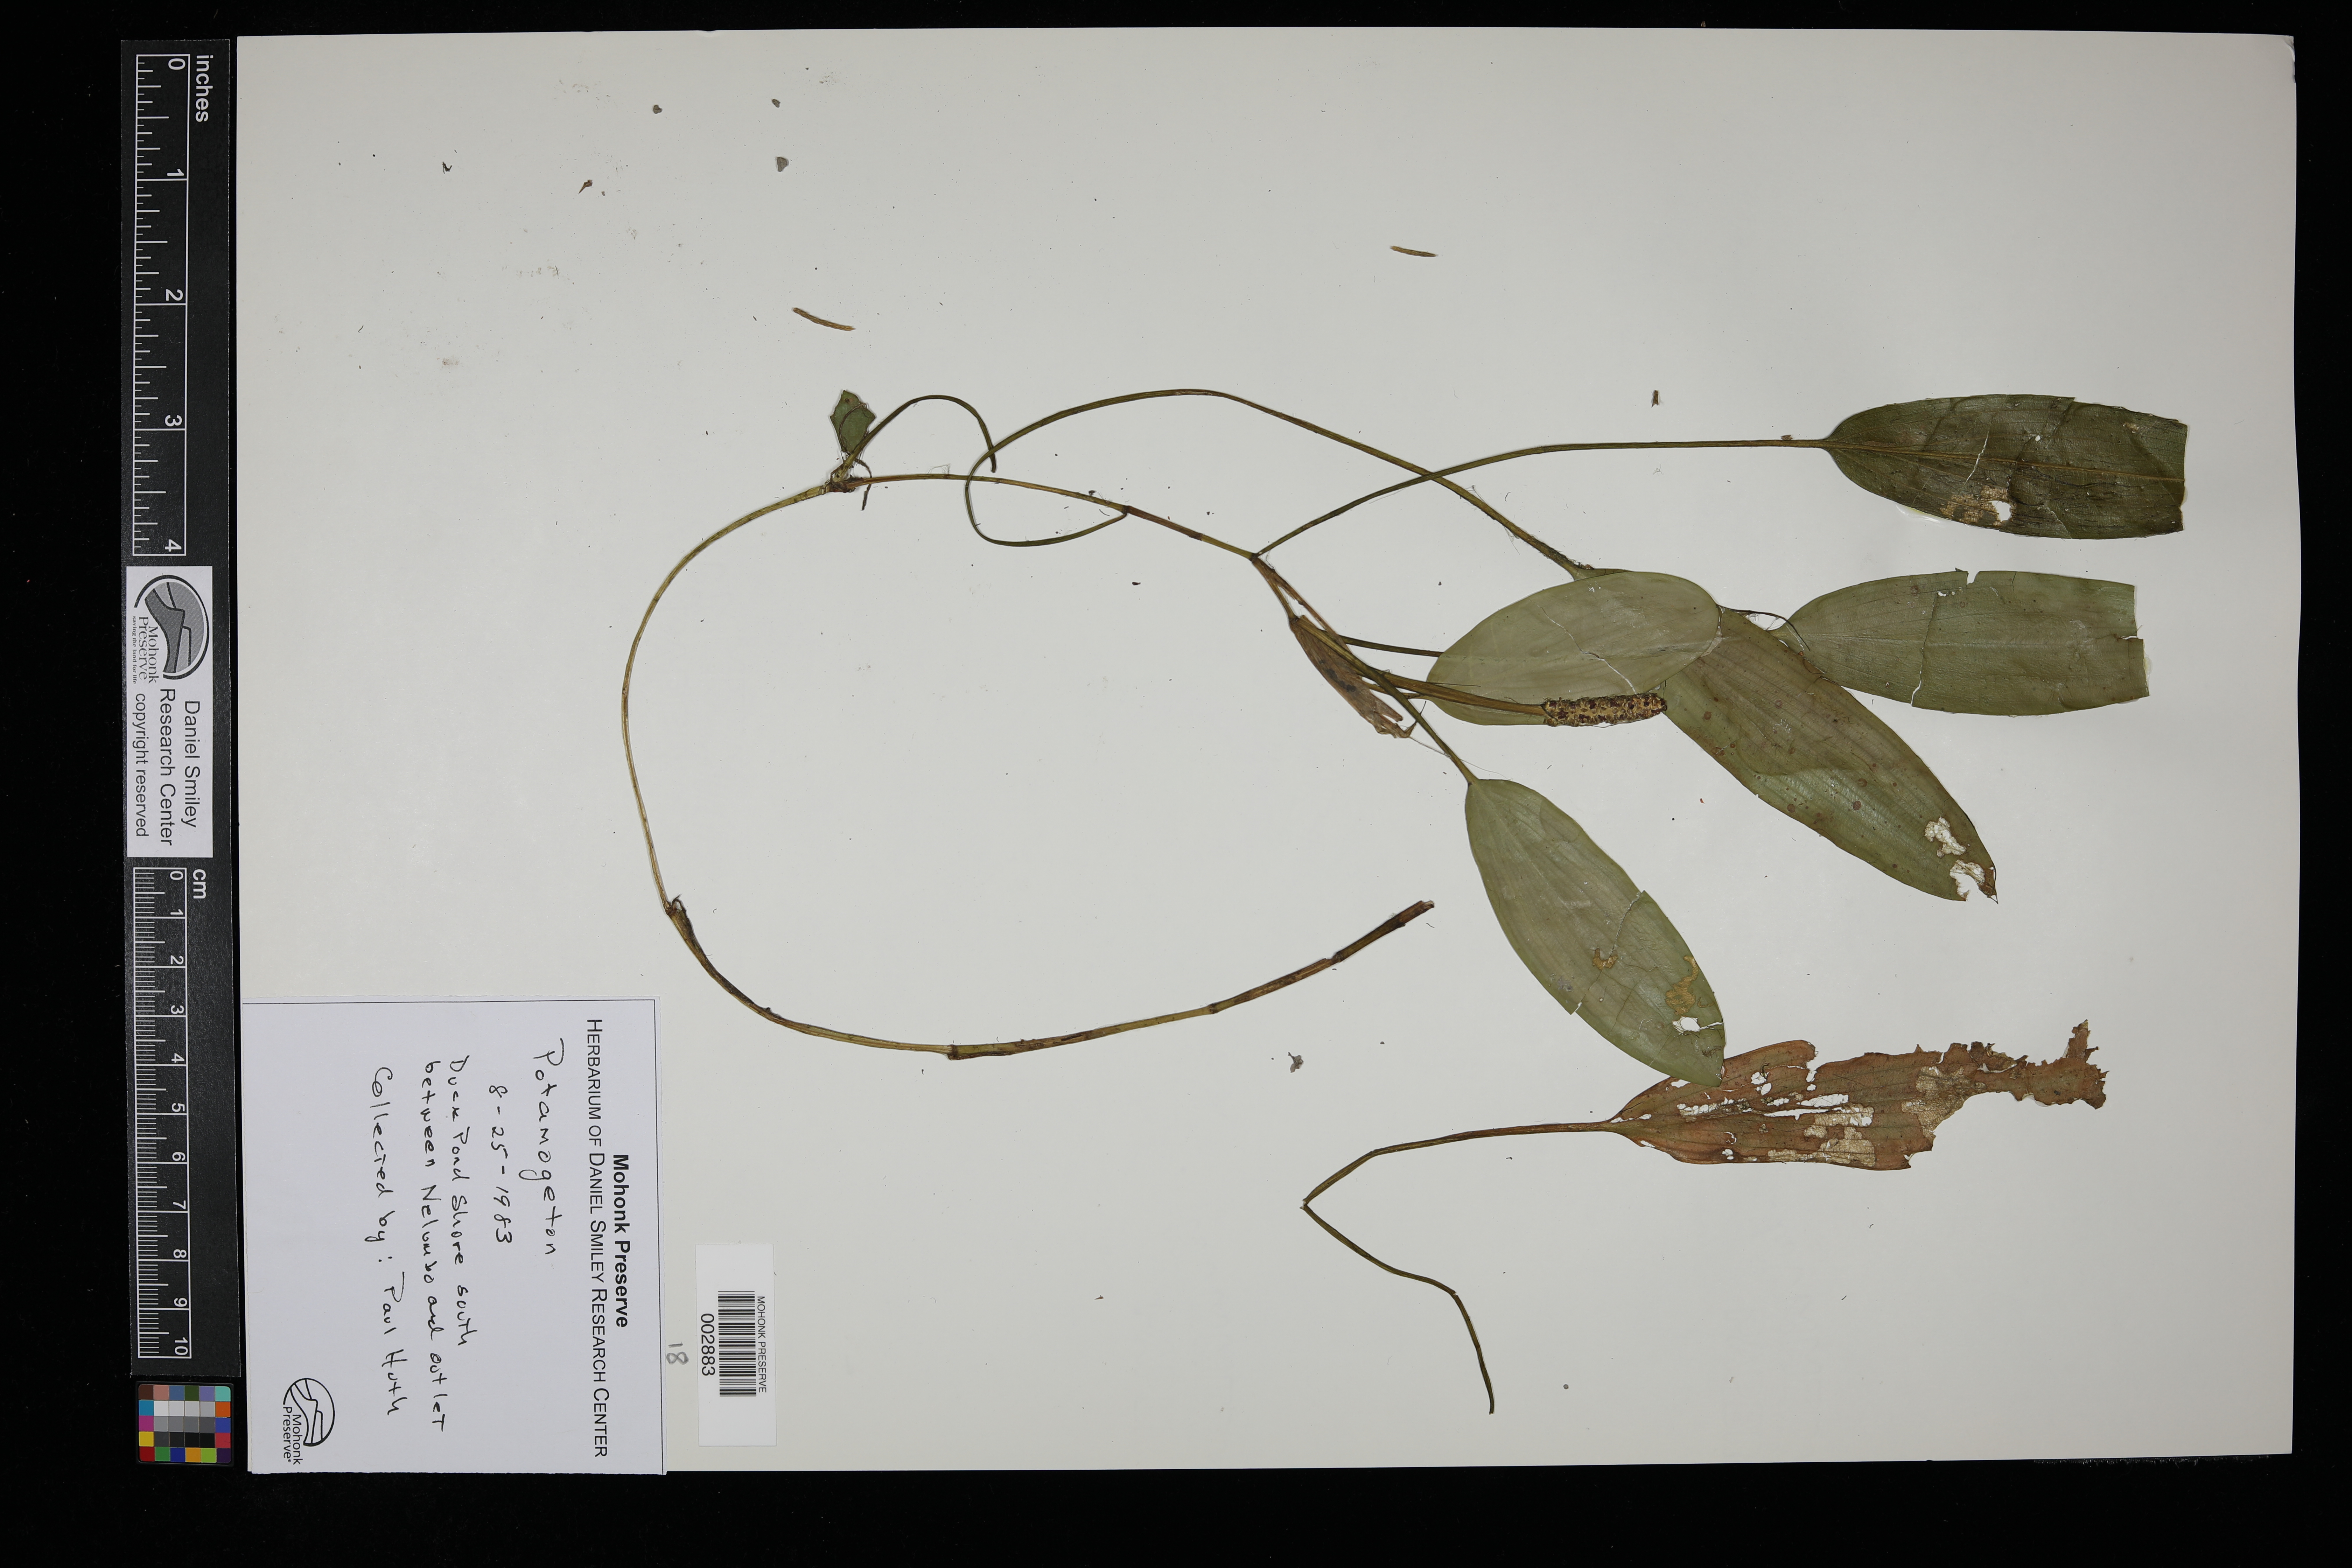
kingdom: Plantae
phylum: Tracheophyta
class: Liliopsida
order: Alismatales
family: Potamogetonaceae
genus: Potamogeton
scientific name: Potamogeton
